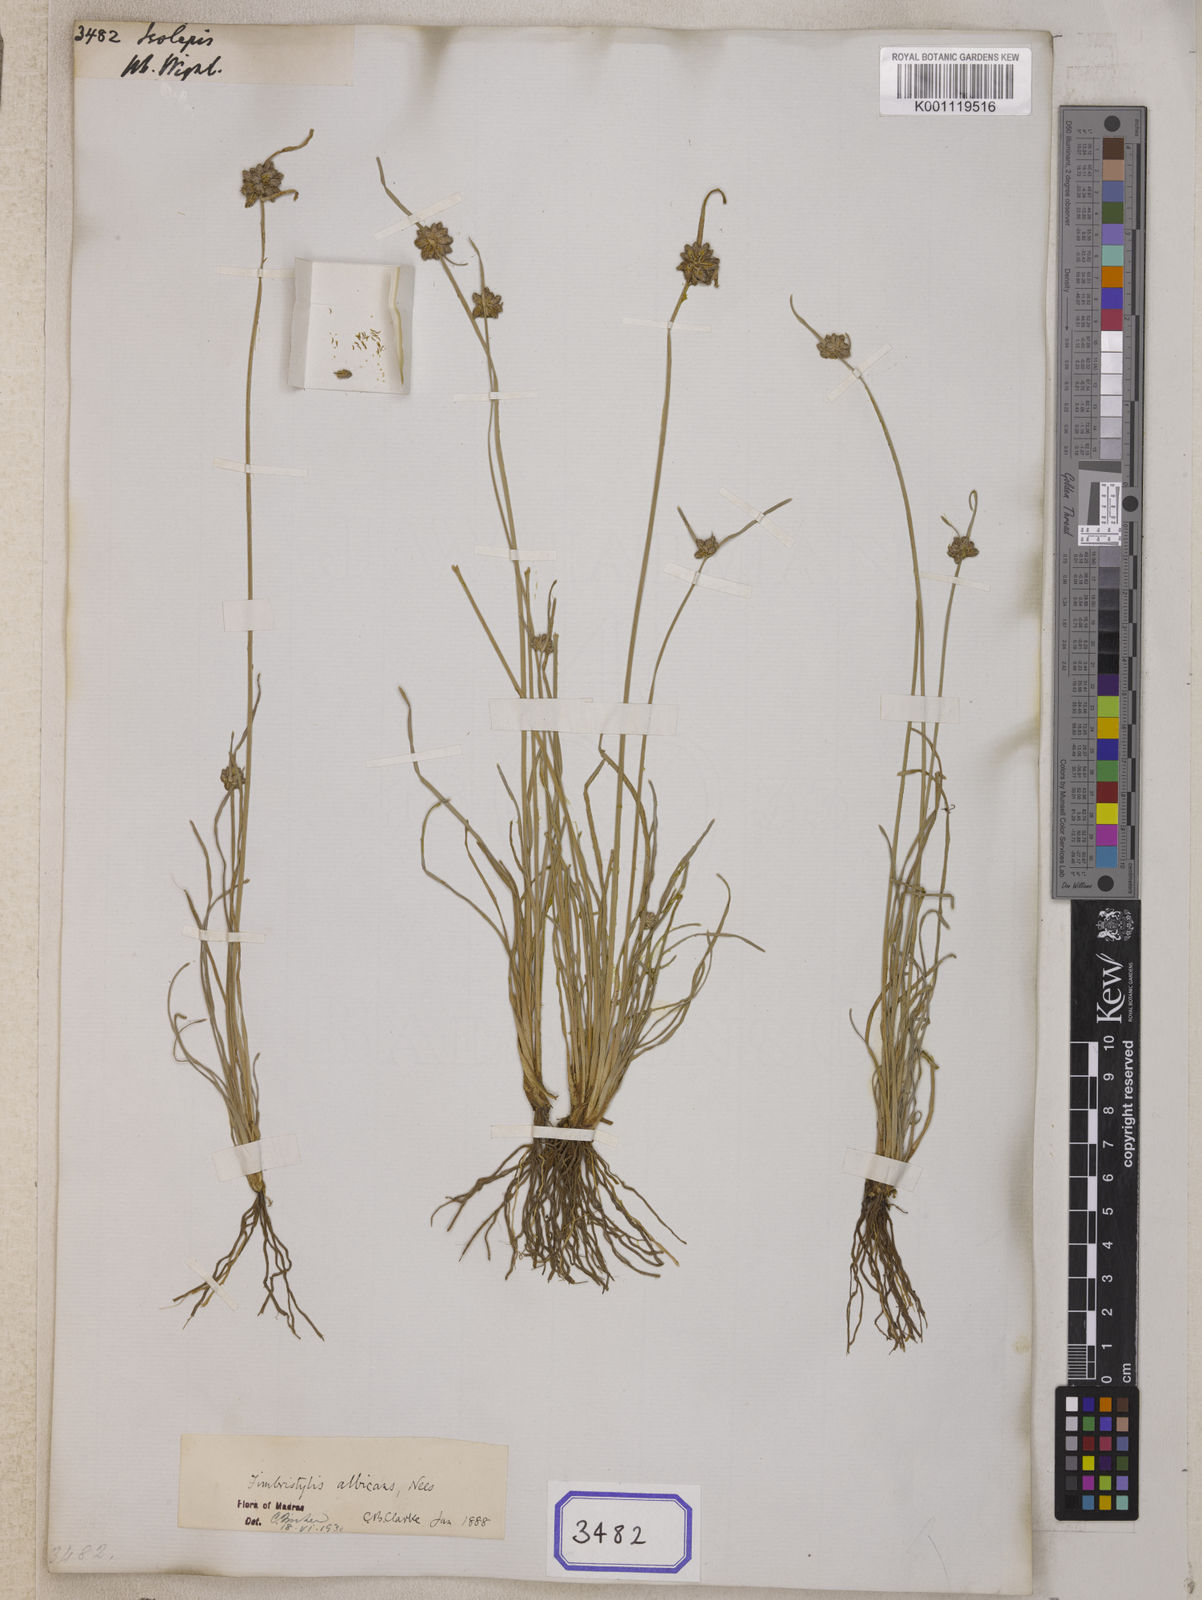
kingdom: Plantae
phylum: Tracheophyta
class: Liliopsida
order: Poales
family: Cyperaceae
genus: Isolepis
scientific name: Isolepis
